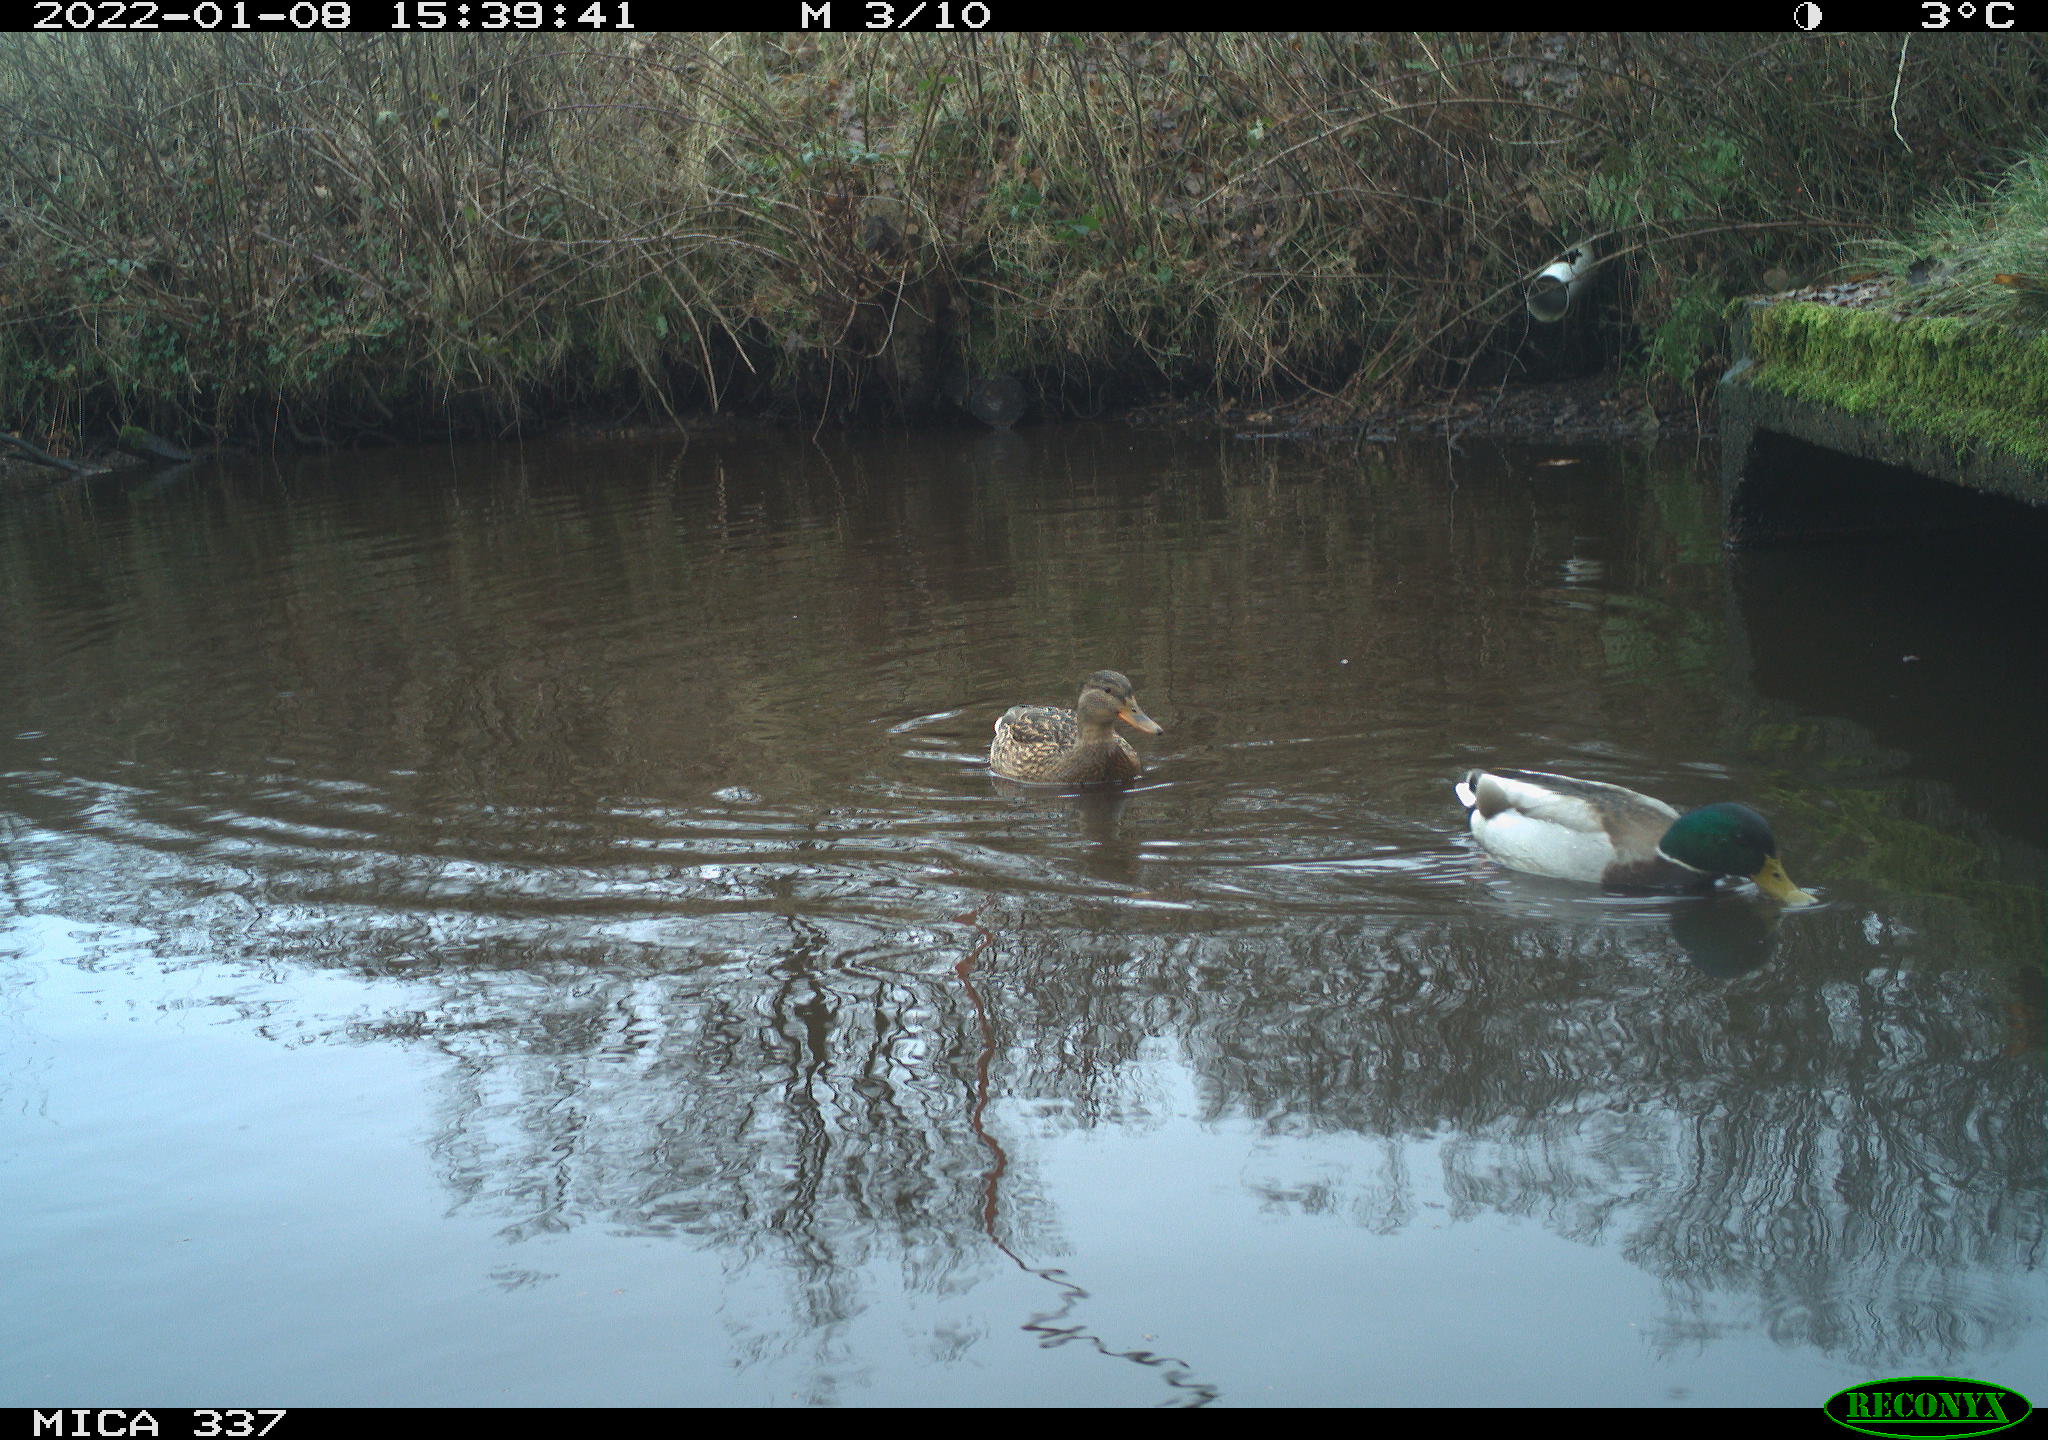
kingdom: Animalia
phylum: Chordata
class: Aves
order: Anseriformes
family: Anatidae
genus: Anas
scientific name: Anas platyrhynchos
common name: Mallard
